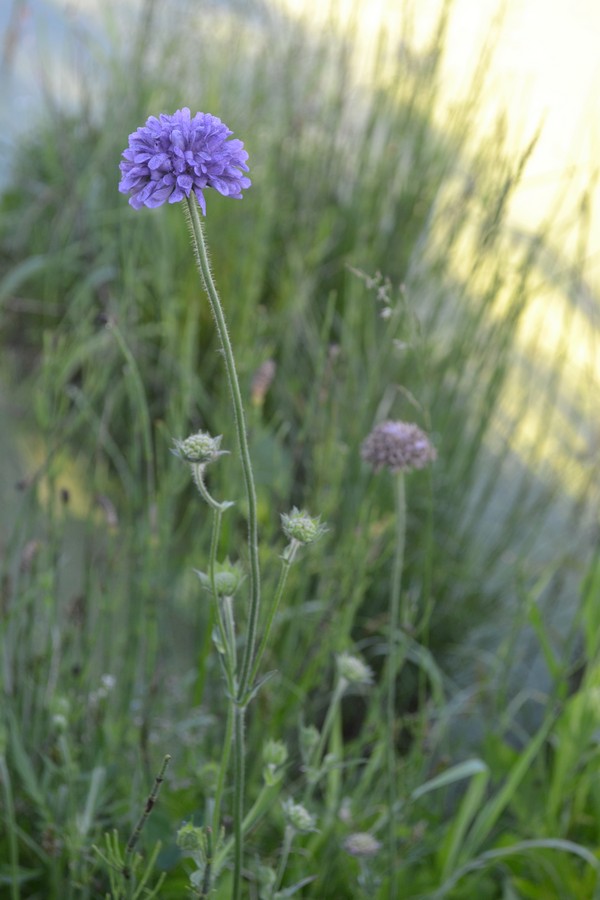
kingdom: Plantae
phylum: Tracheophyta
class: Magnoliopsida
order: Dipsacales
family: Caprifoliaceae
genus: Succisa
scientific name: Succisa pratensis
